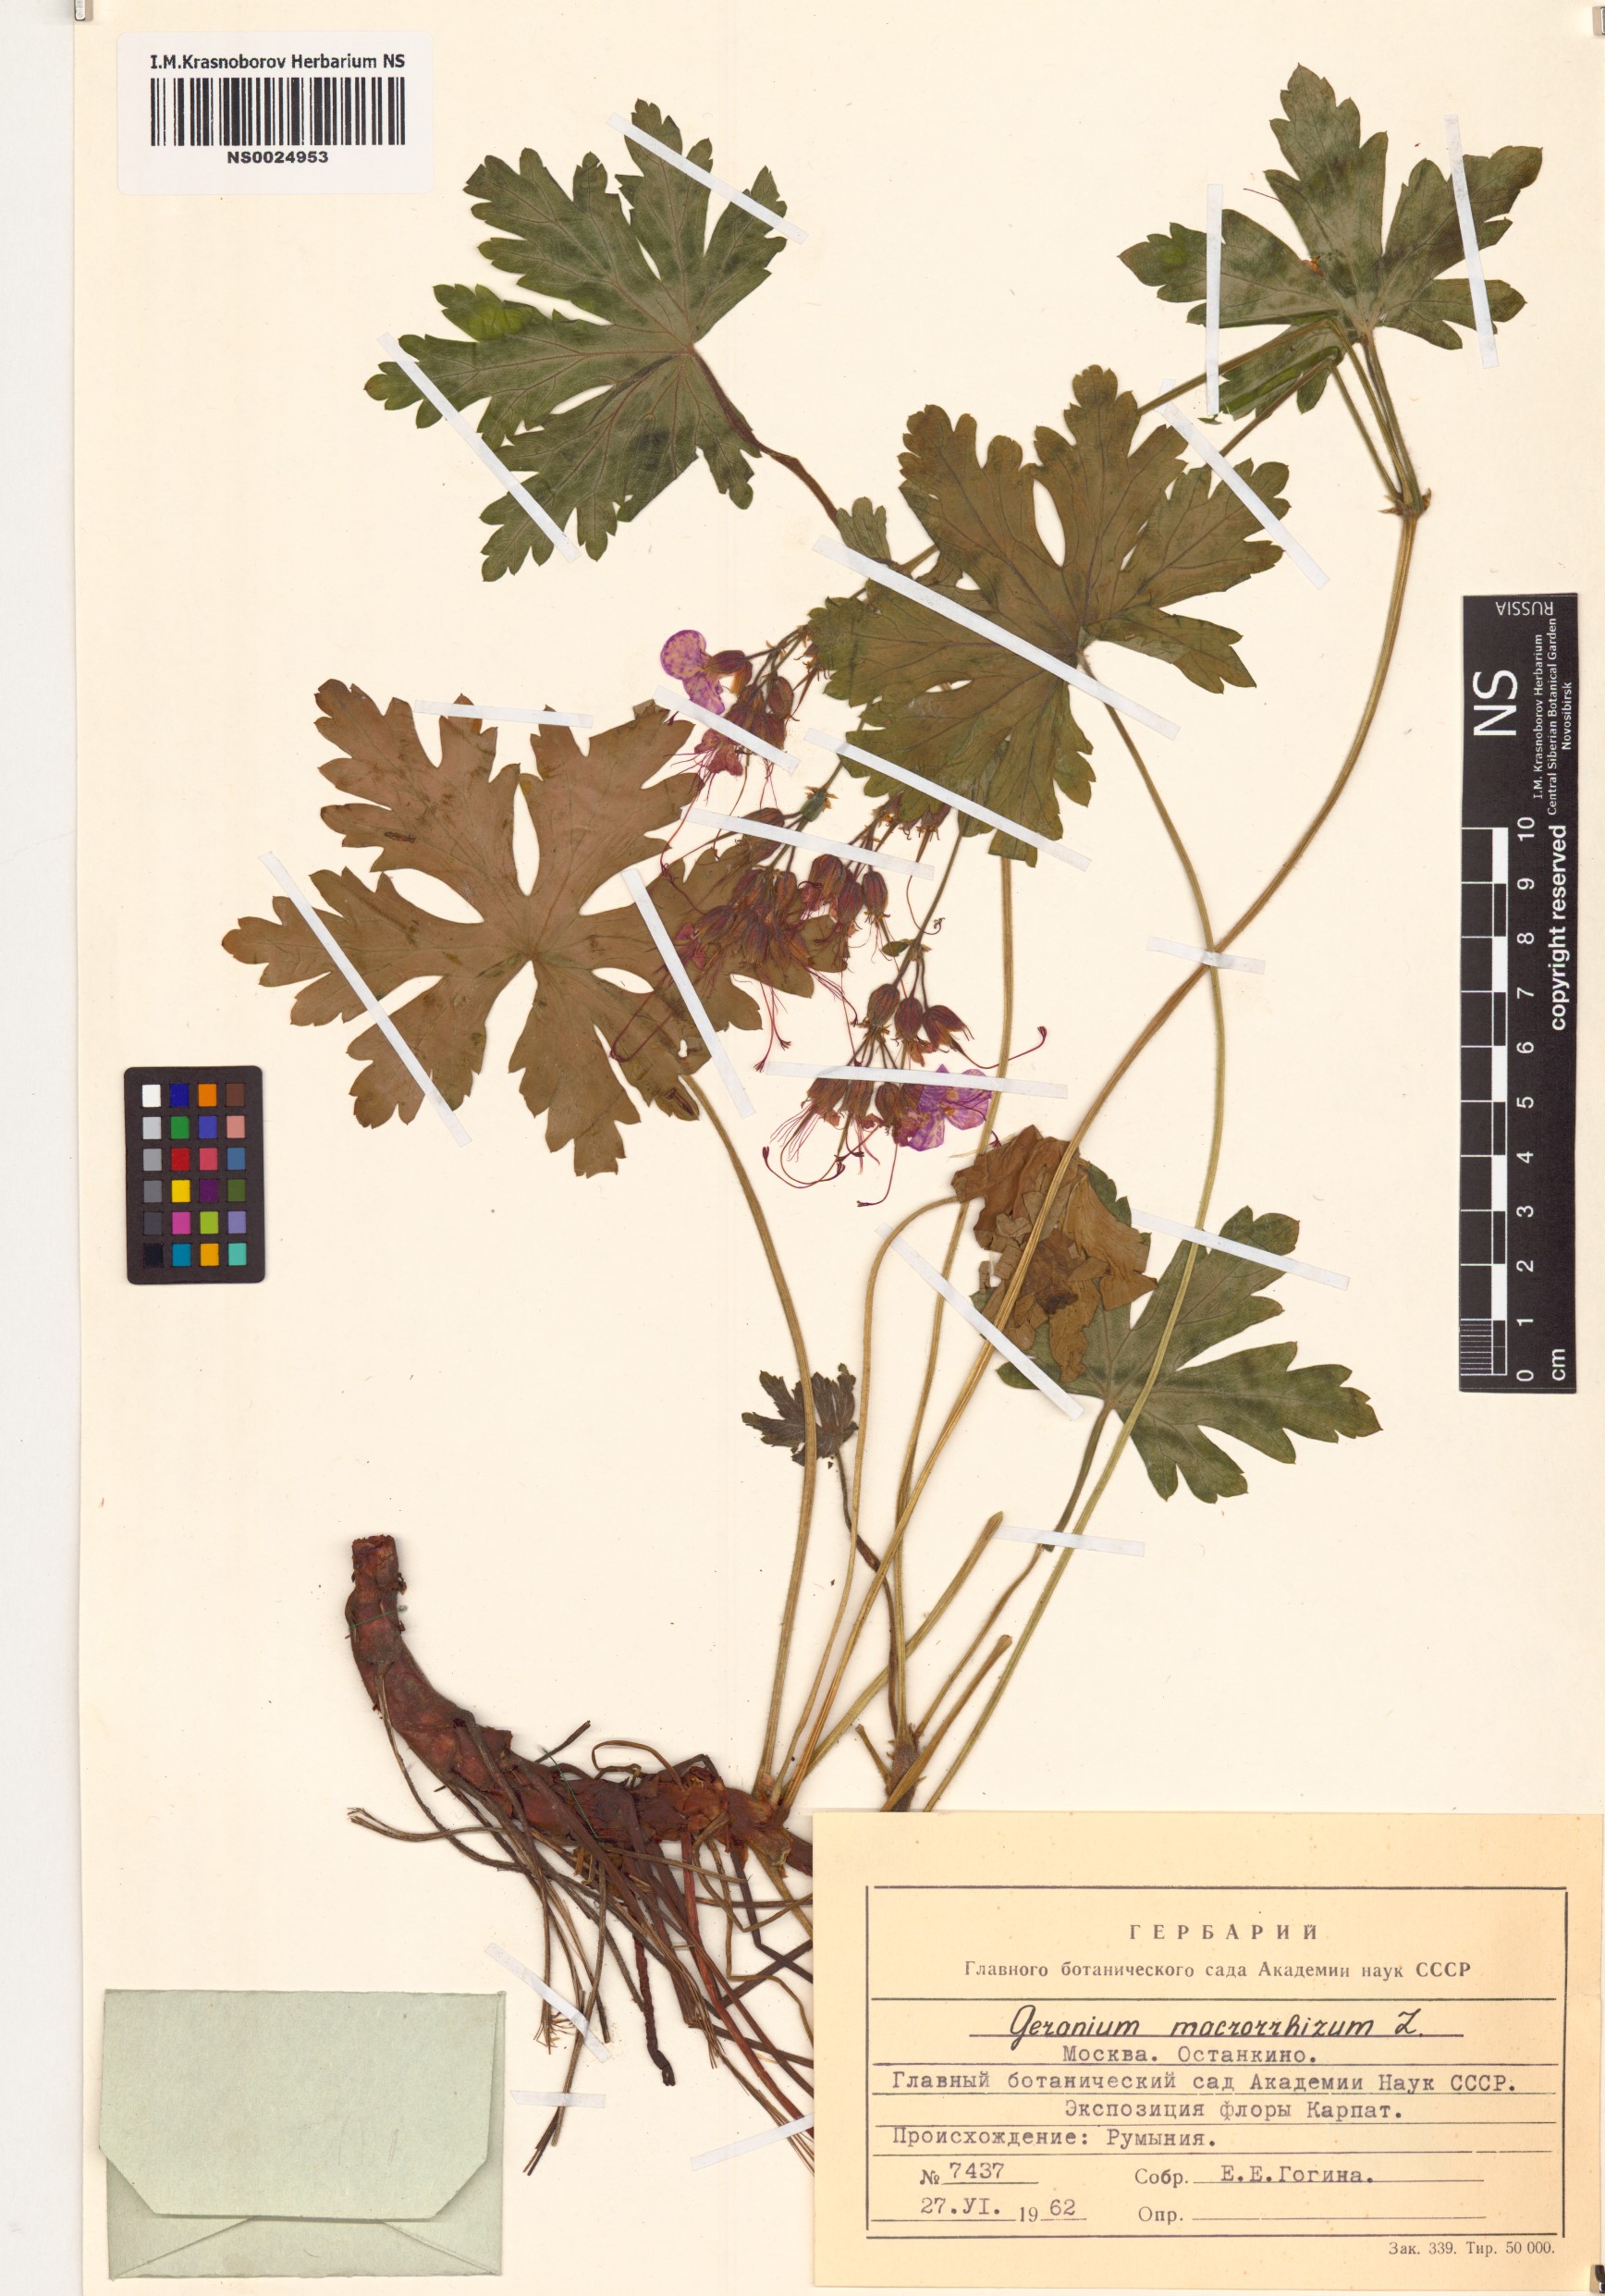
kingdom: Plantae
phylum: Tracheophyta
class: Magnoliopsida
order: Geraniales
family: Geraniaceae
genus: Geranium
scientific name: Geranium macrorrhizum
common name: Rock crane's-bill
